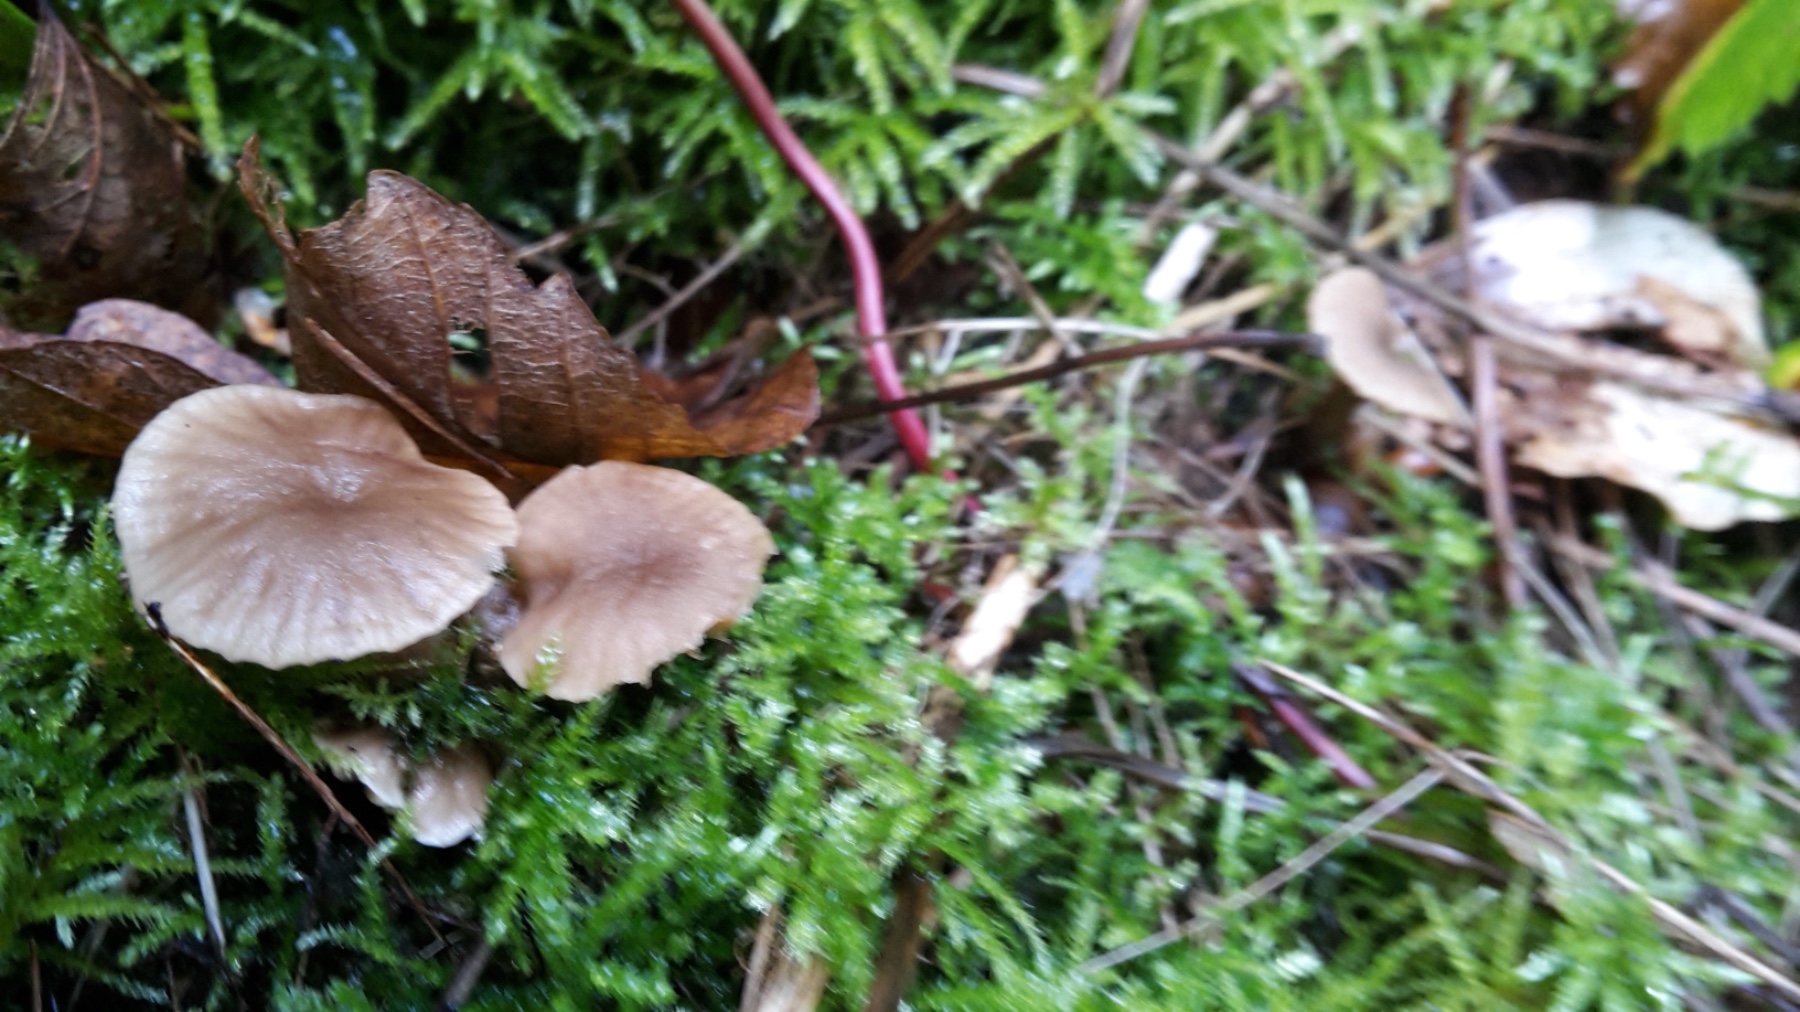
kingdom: Fungi
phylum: Basidiomycota
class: Agaricomycetes
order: Agaricales
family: Clavariaceae
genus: Hodophilus
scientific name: Hodophilus variabilipes
